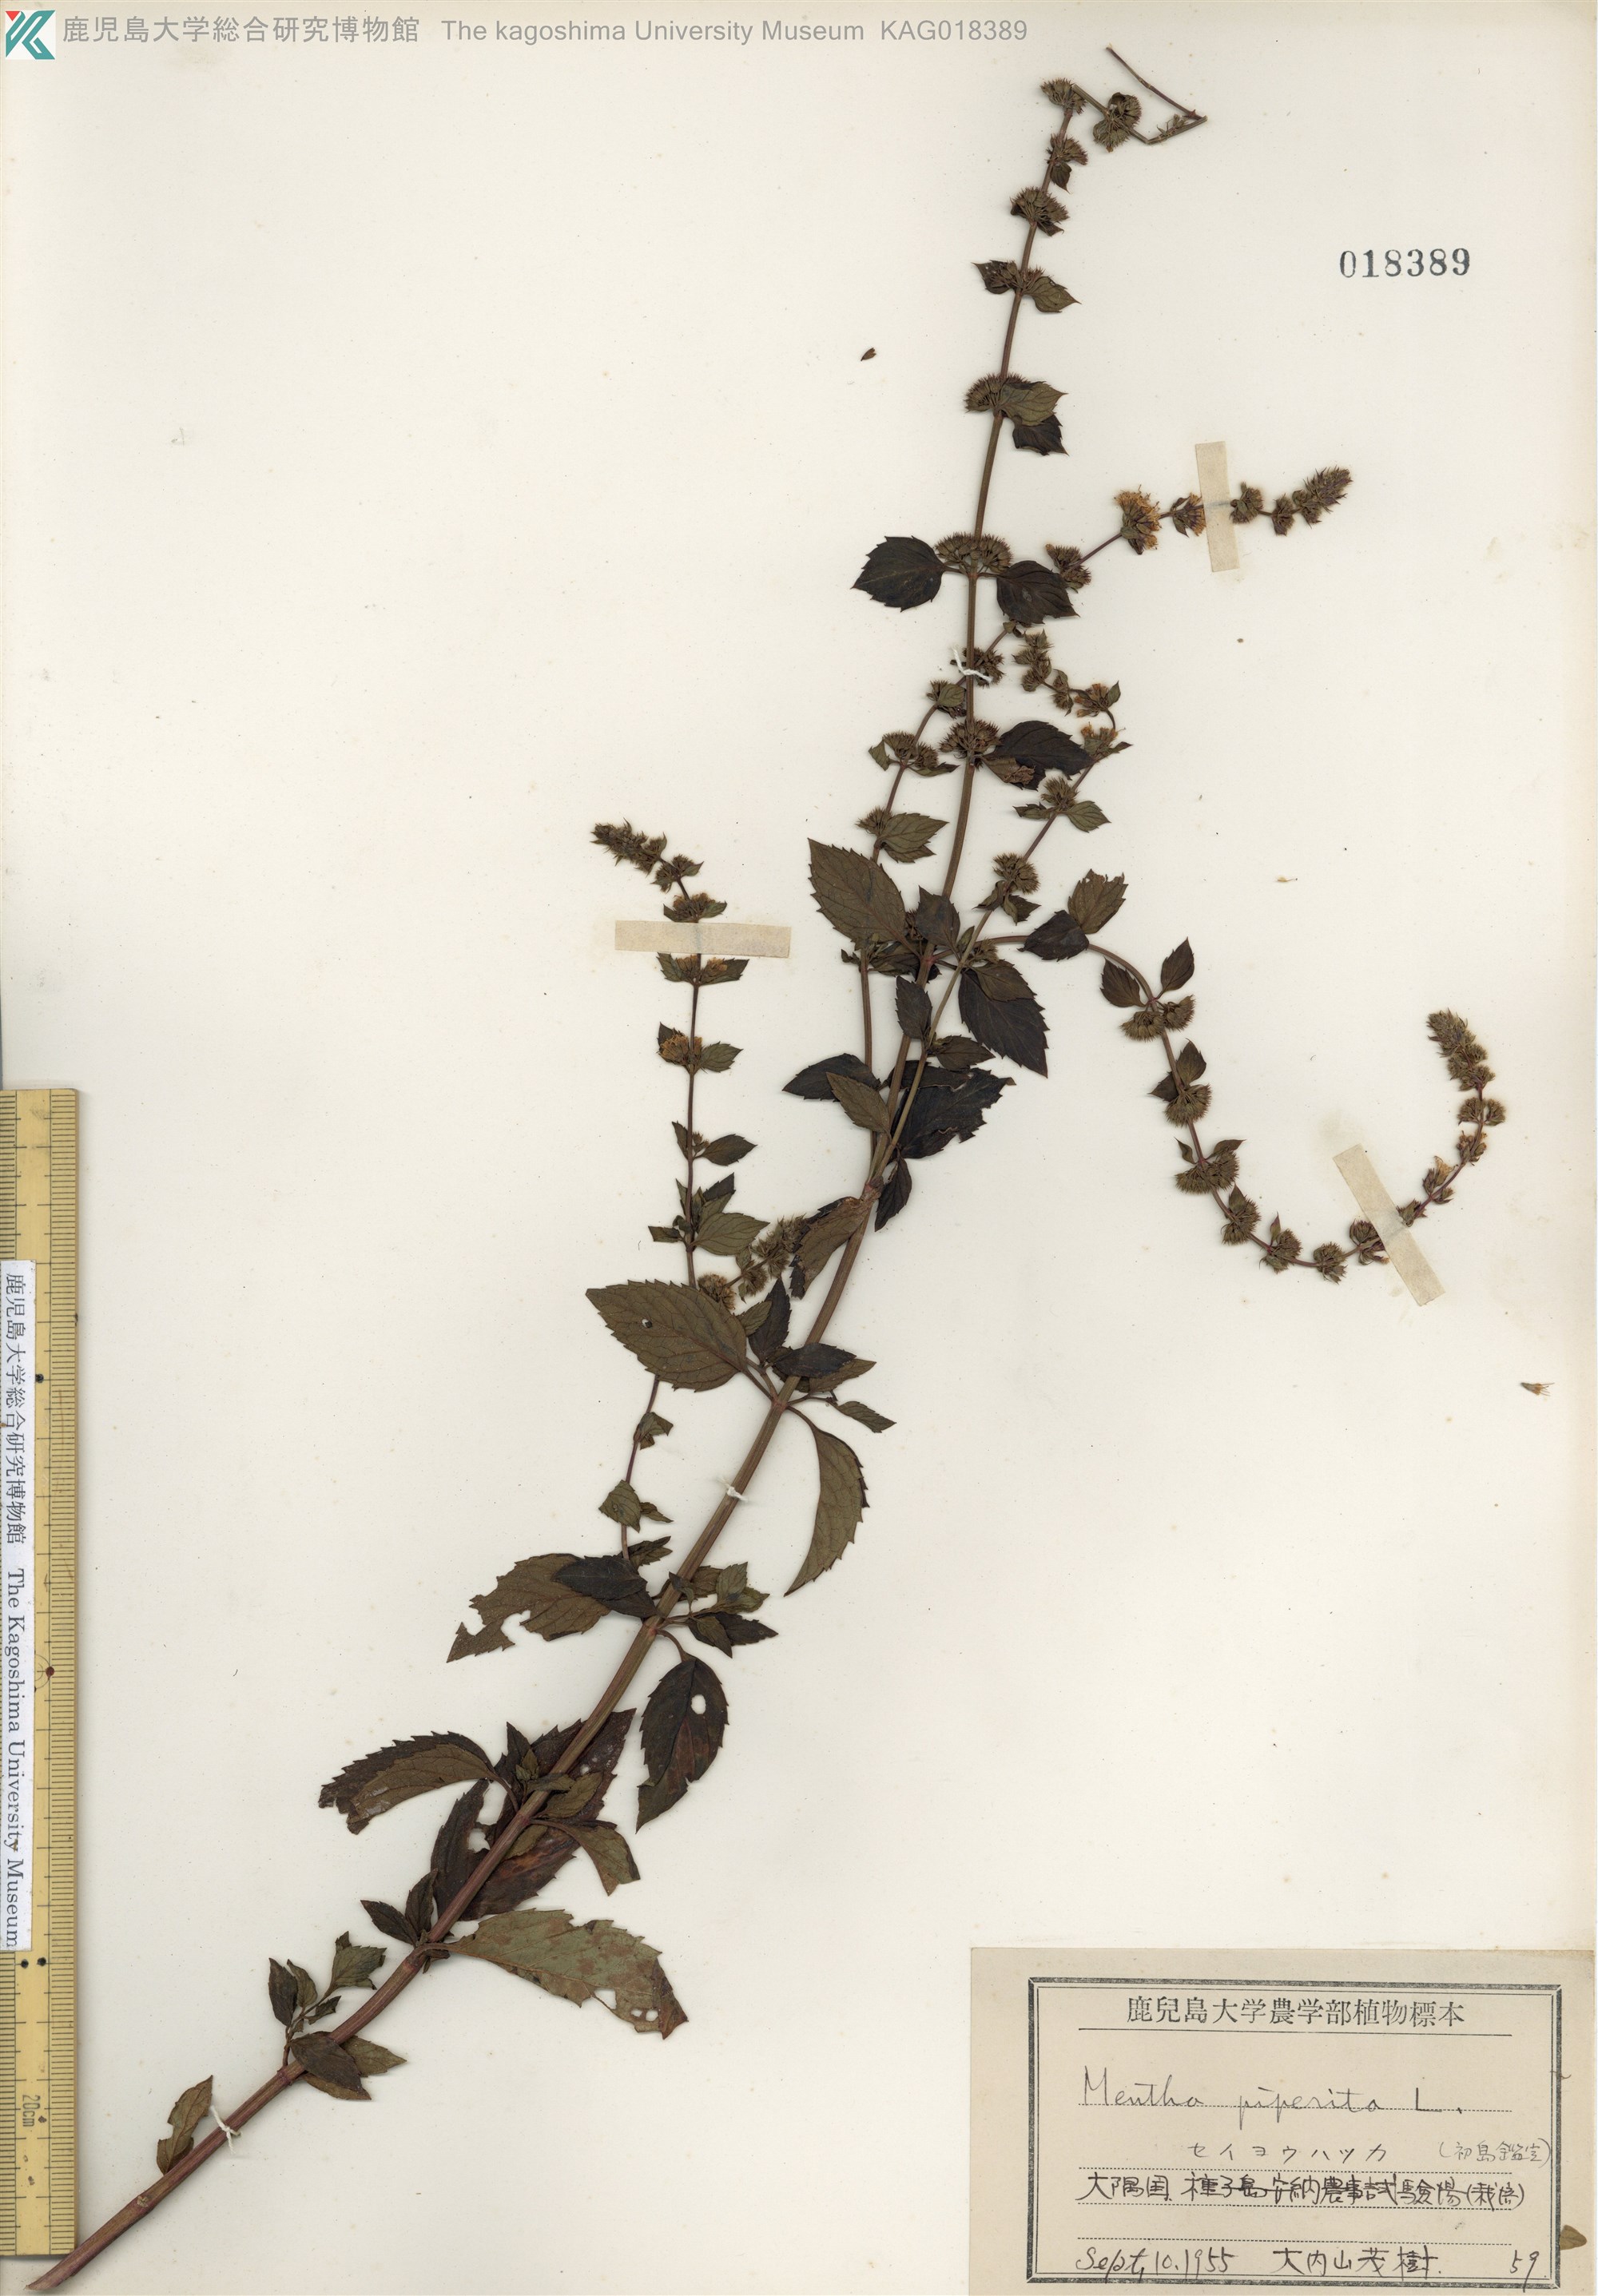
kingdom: Plantae
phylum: Tracheophyta
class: Magnoliopsida
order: Lamiales
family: Lamiaceae
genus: Mentha
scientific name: Mentha piperita
